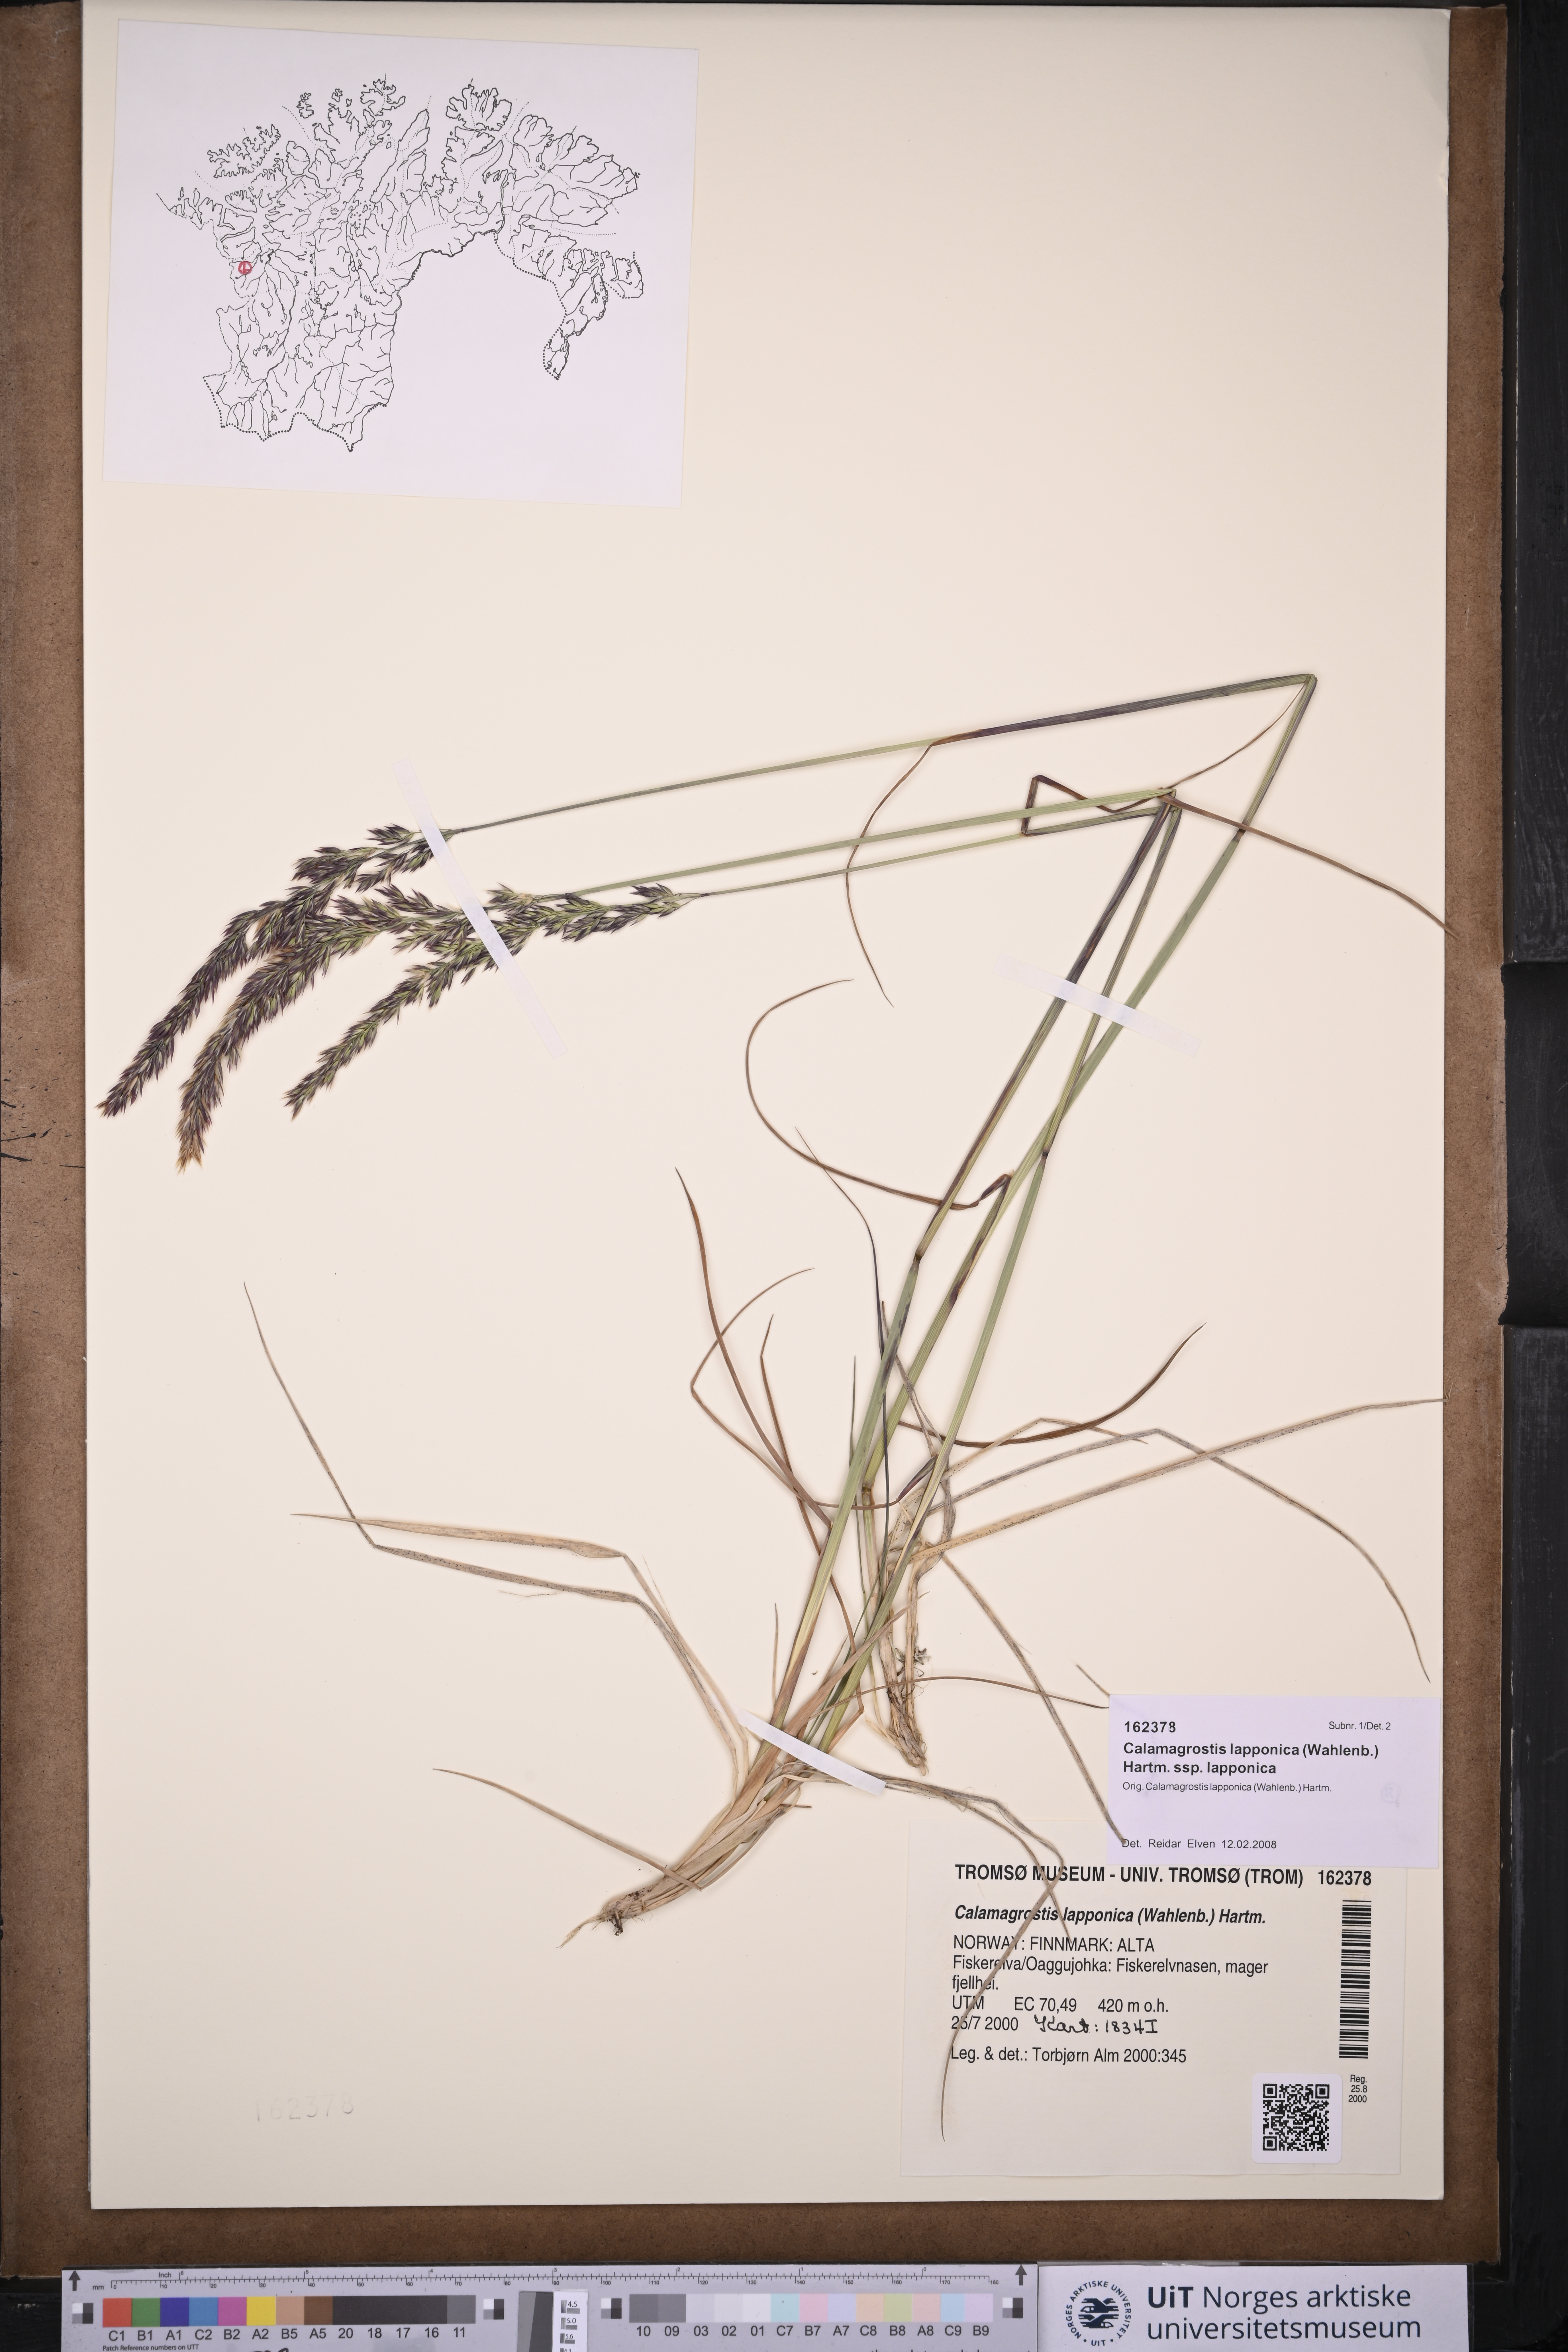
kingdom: Plantae
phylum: Tracheophyta
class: Liliopsida
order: Poales
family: Poaceae
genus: Calamagrostis
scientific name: Calamagrostis lapponica
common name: Lapland reedgrass
